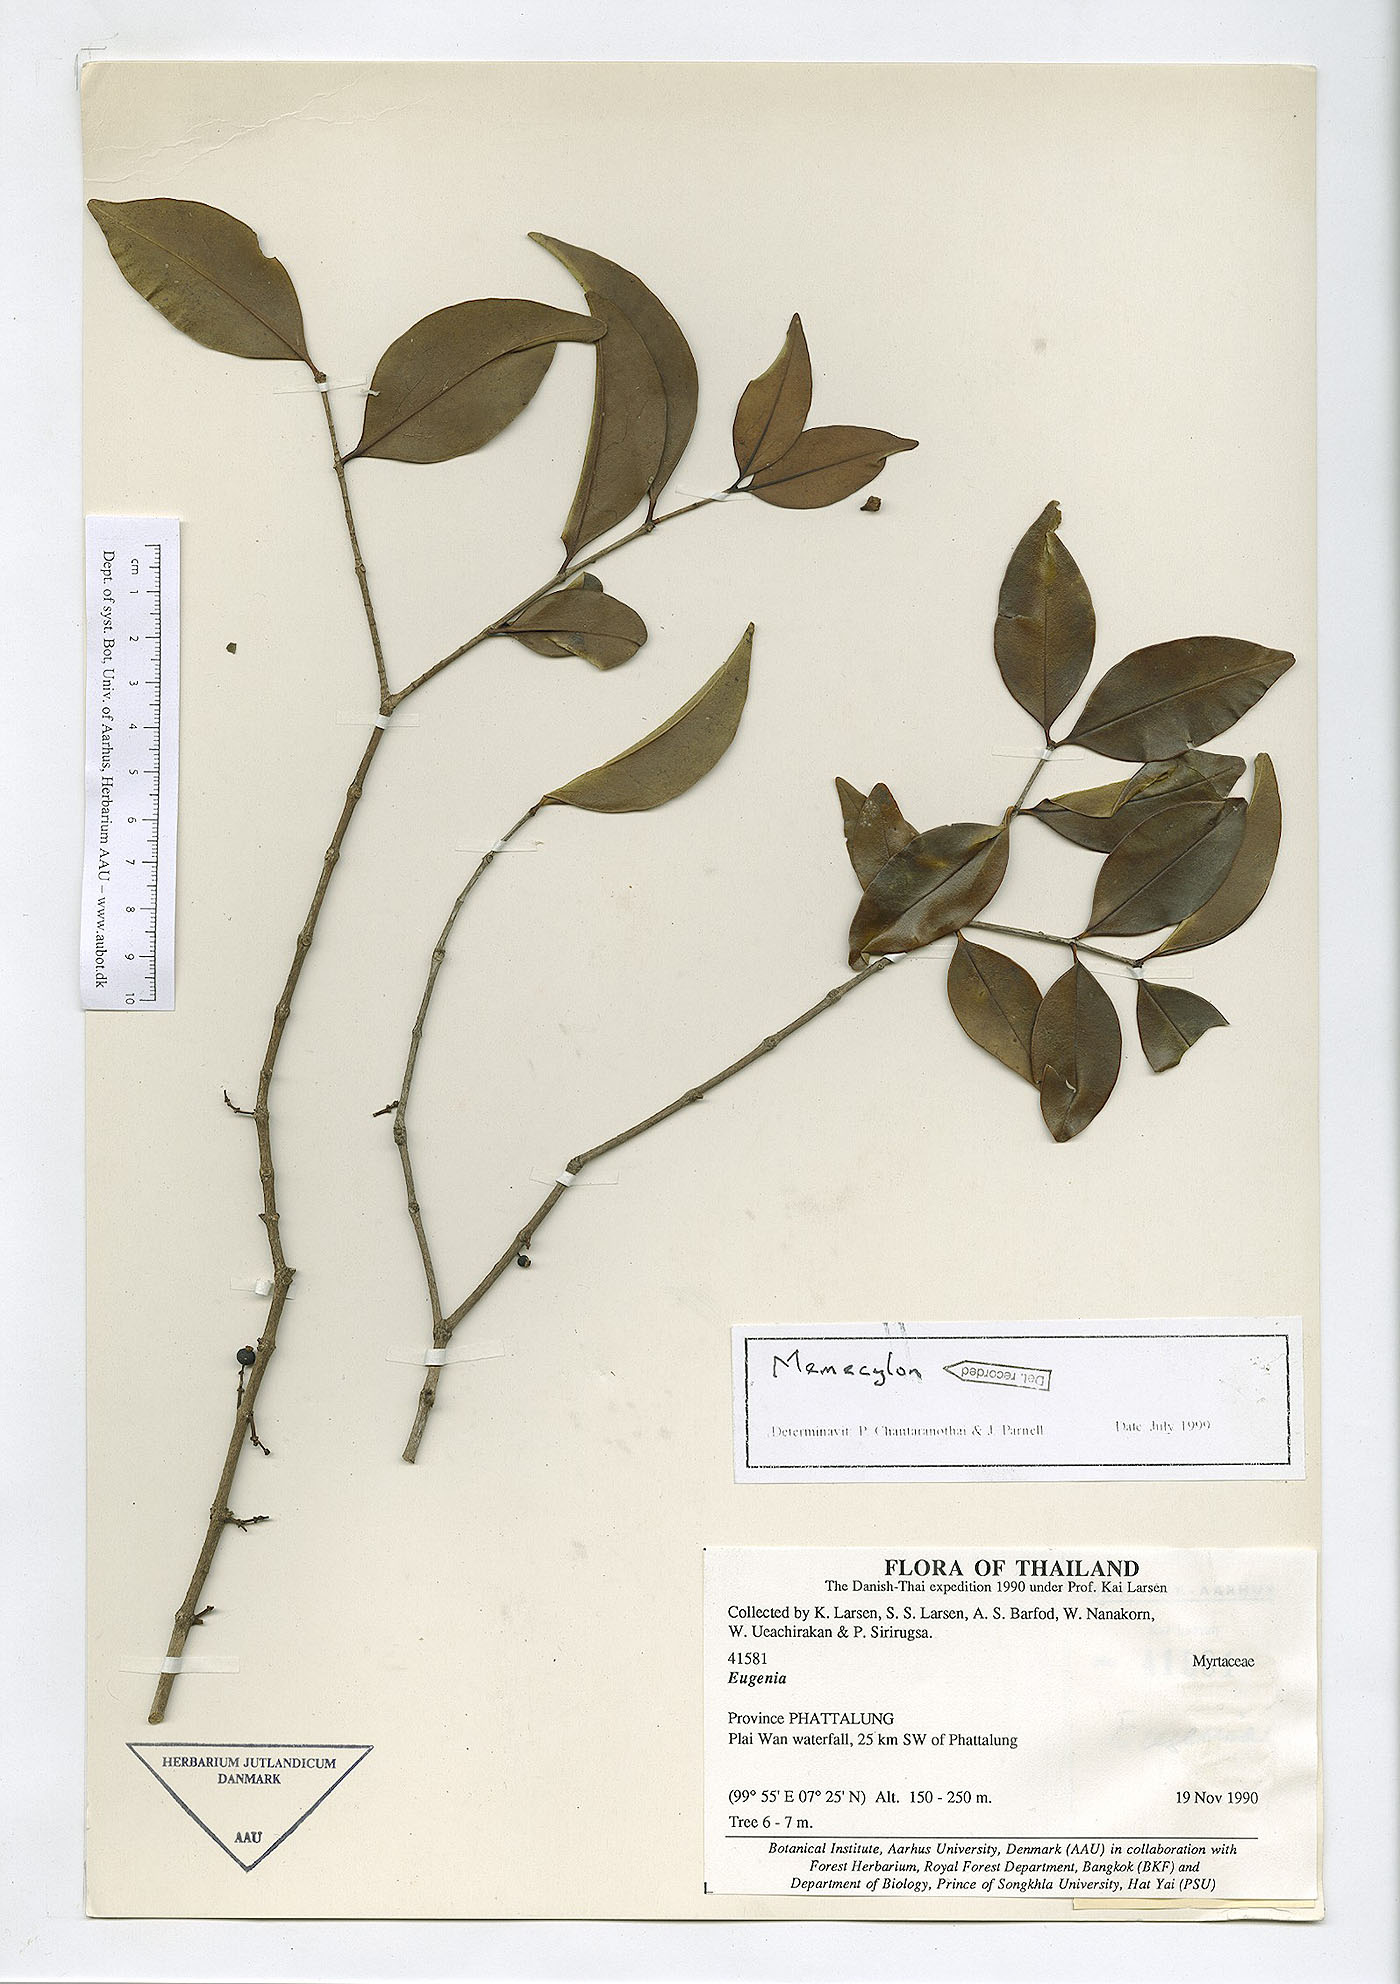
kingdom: Plantae
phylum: Tracheophyta
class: Magnoliopsida
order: Myrtales
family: Melastomataceae
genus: Memecylon
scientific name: Memecylon edule
